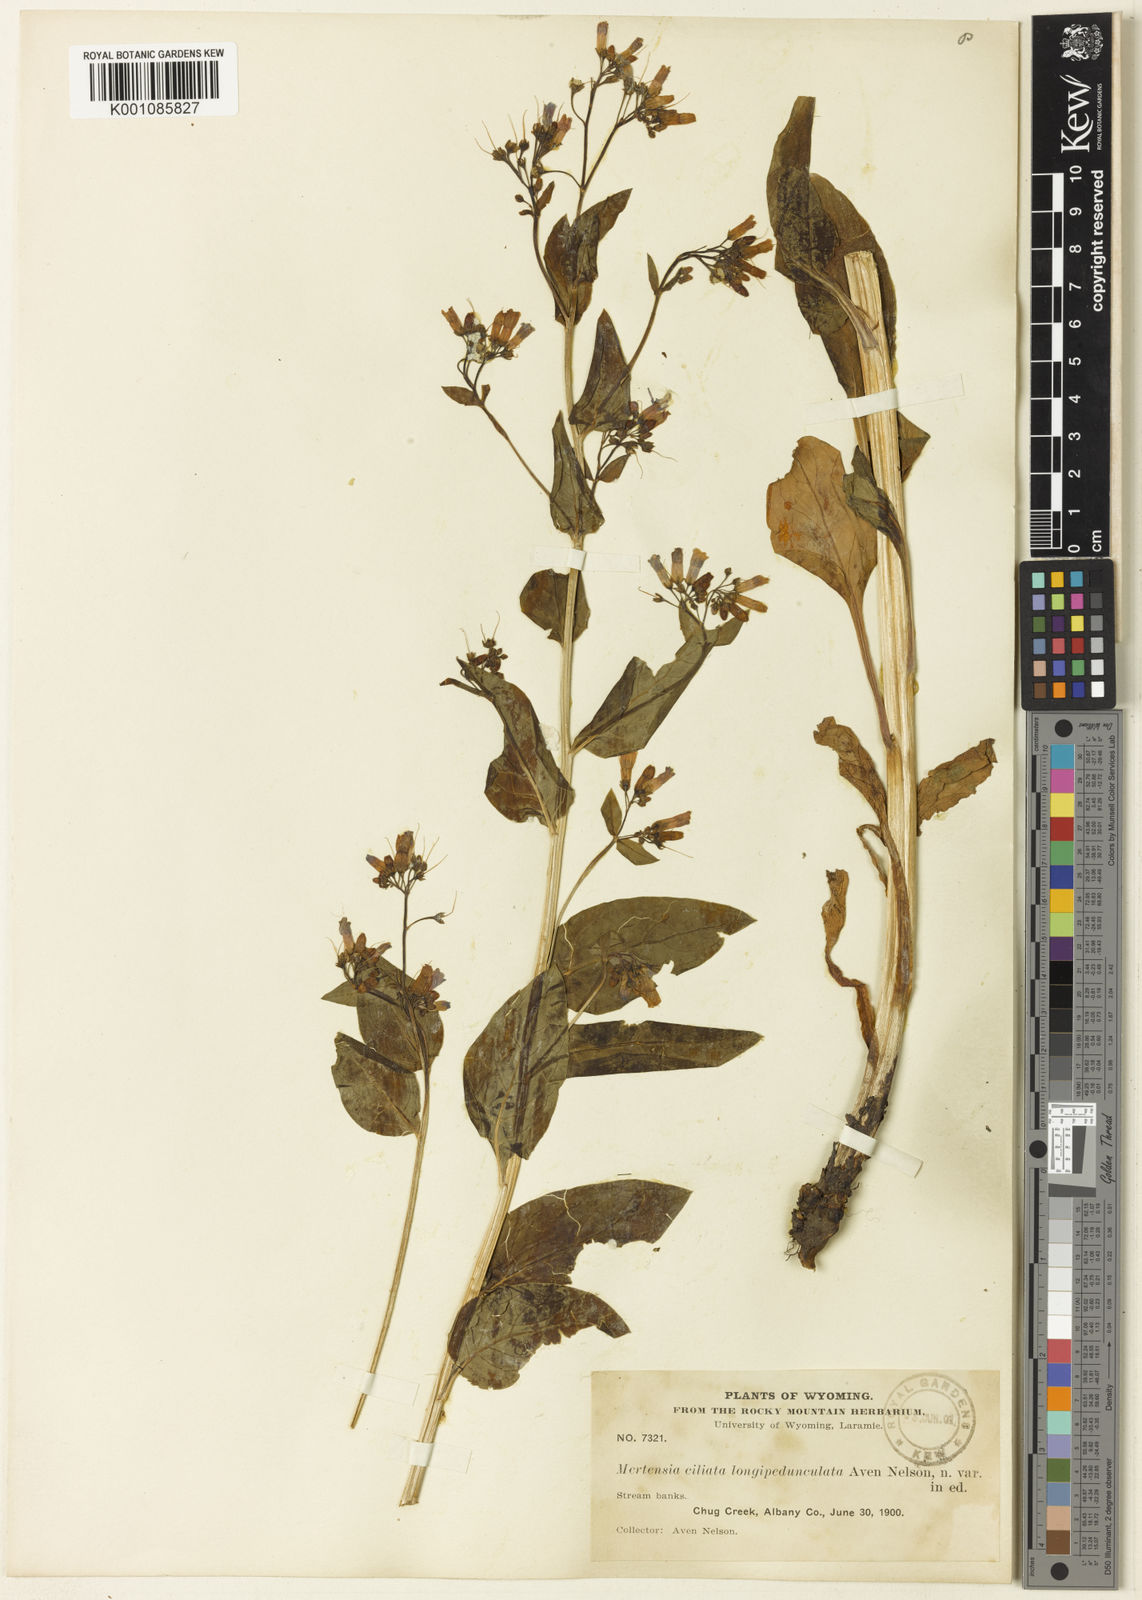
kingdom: Plantae
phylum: Tracheophyta
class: Magnoliopsida
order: Boraginales
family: Boraginaceae
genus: Mertensia
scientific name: Mertensia ciliata
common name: Tall chiming-bells
